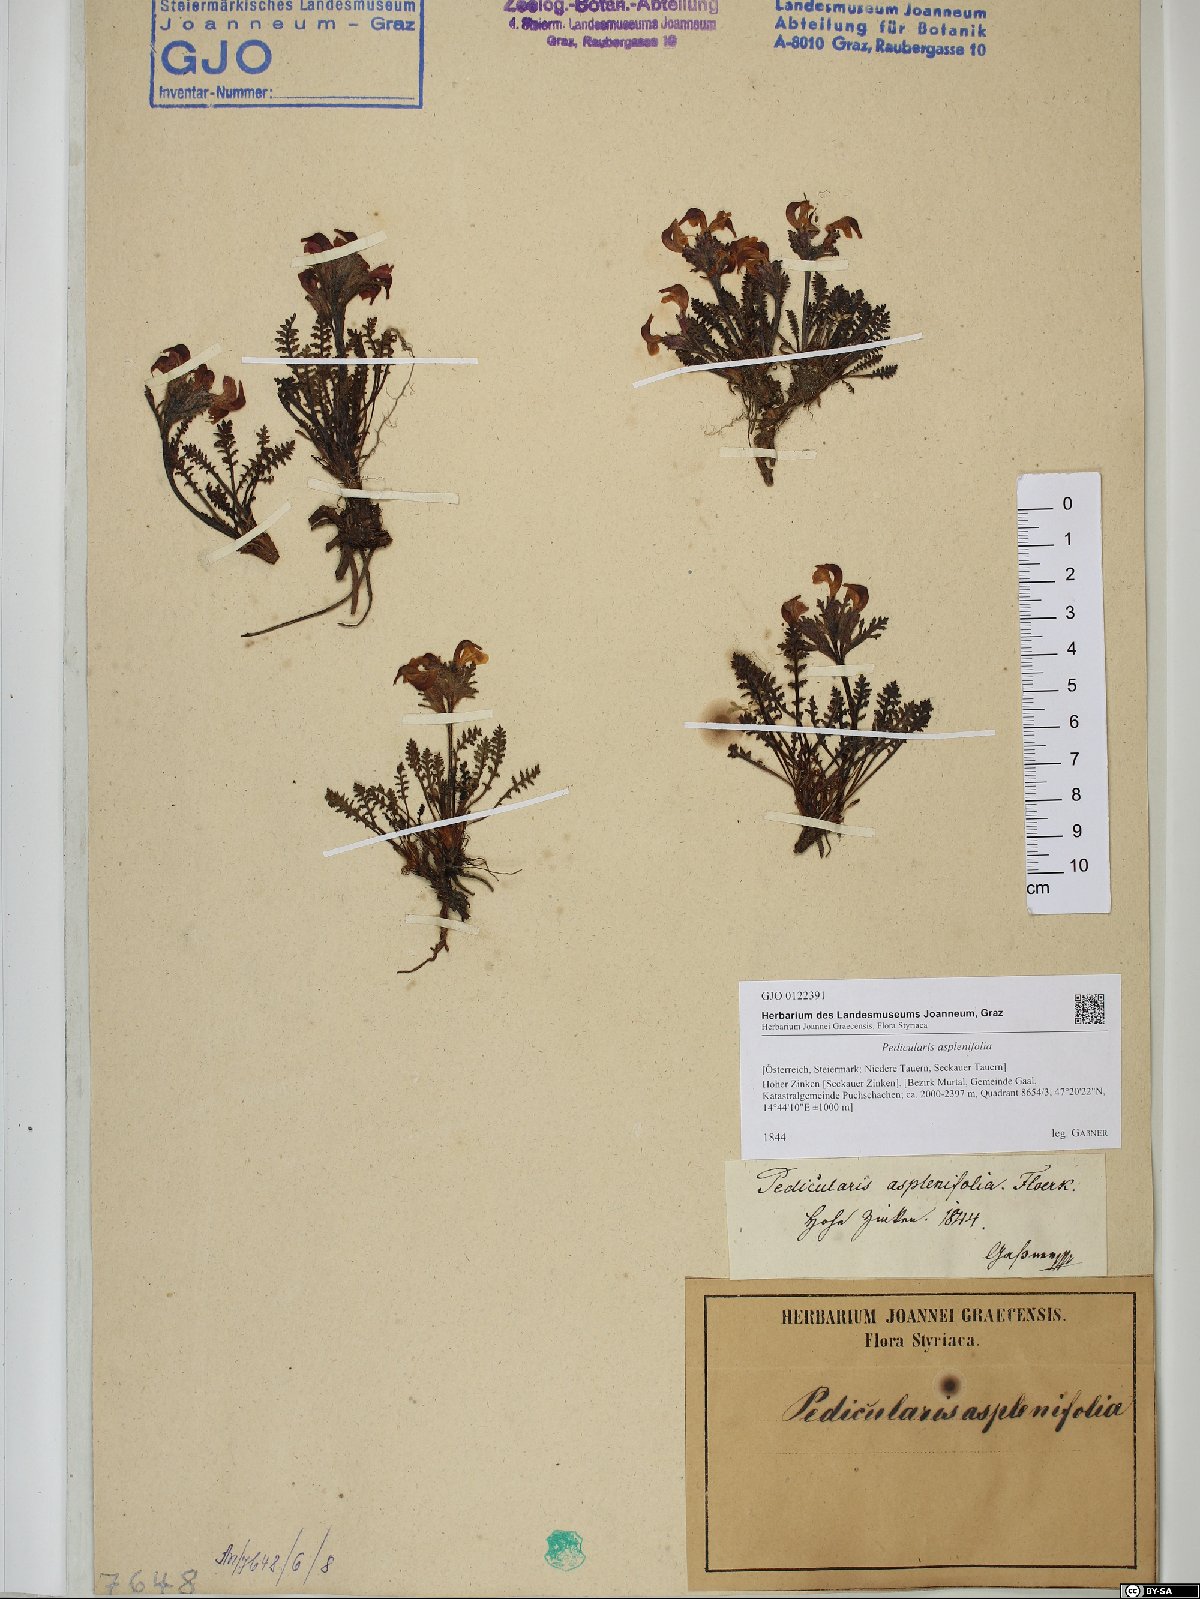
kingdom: Plantae
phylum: Tracheophyta
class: Magnoliopsida
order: Lamiales
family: Orobanchaceae
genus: Pedicularis
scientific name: Pedicularis asplenifolia
